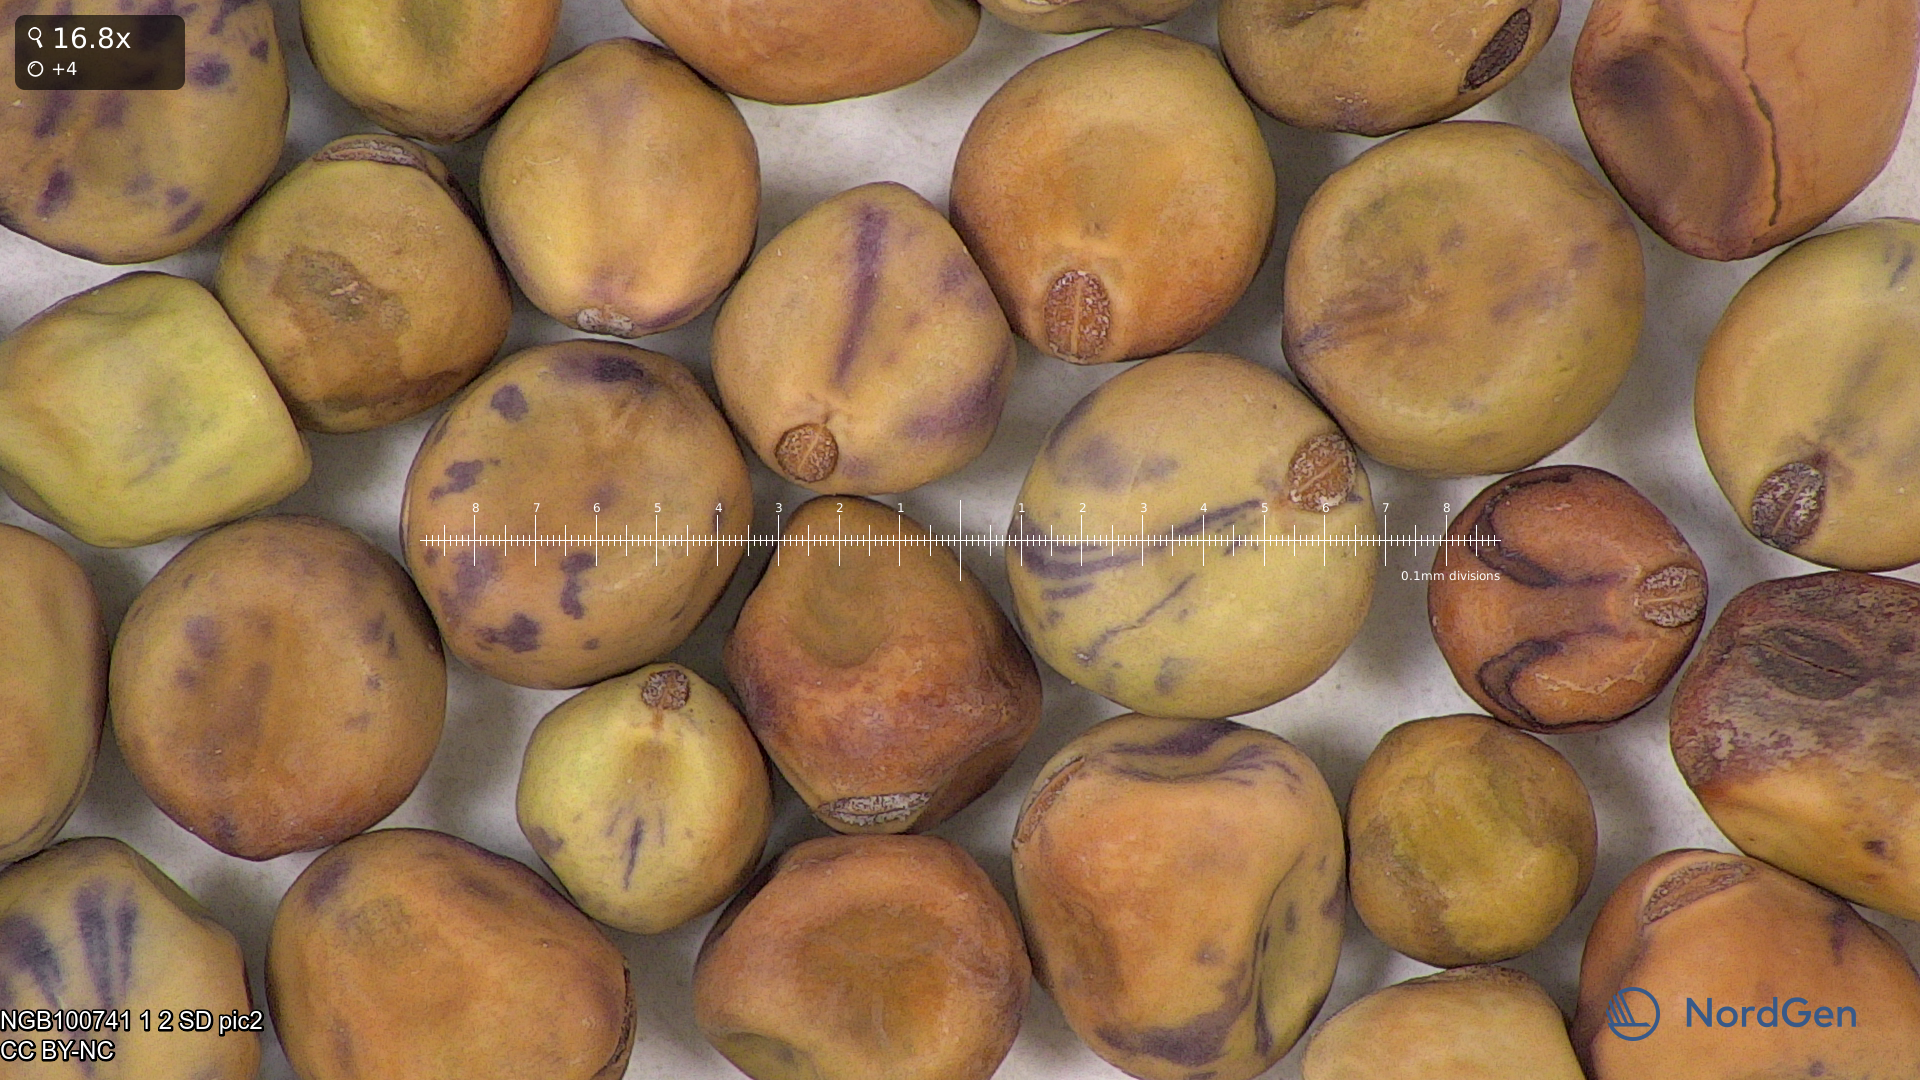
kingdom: Plantae
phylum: Tracheophyta
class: Magnoliopsida
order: Fabales
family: Fabaceae
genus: Lathyrus
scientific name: Lathyrus oleraceus
